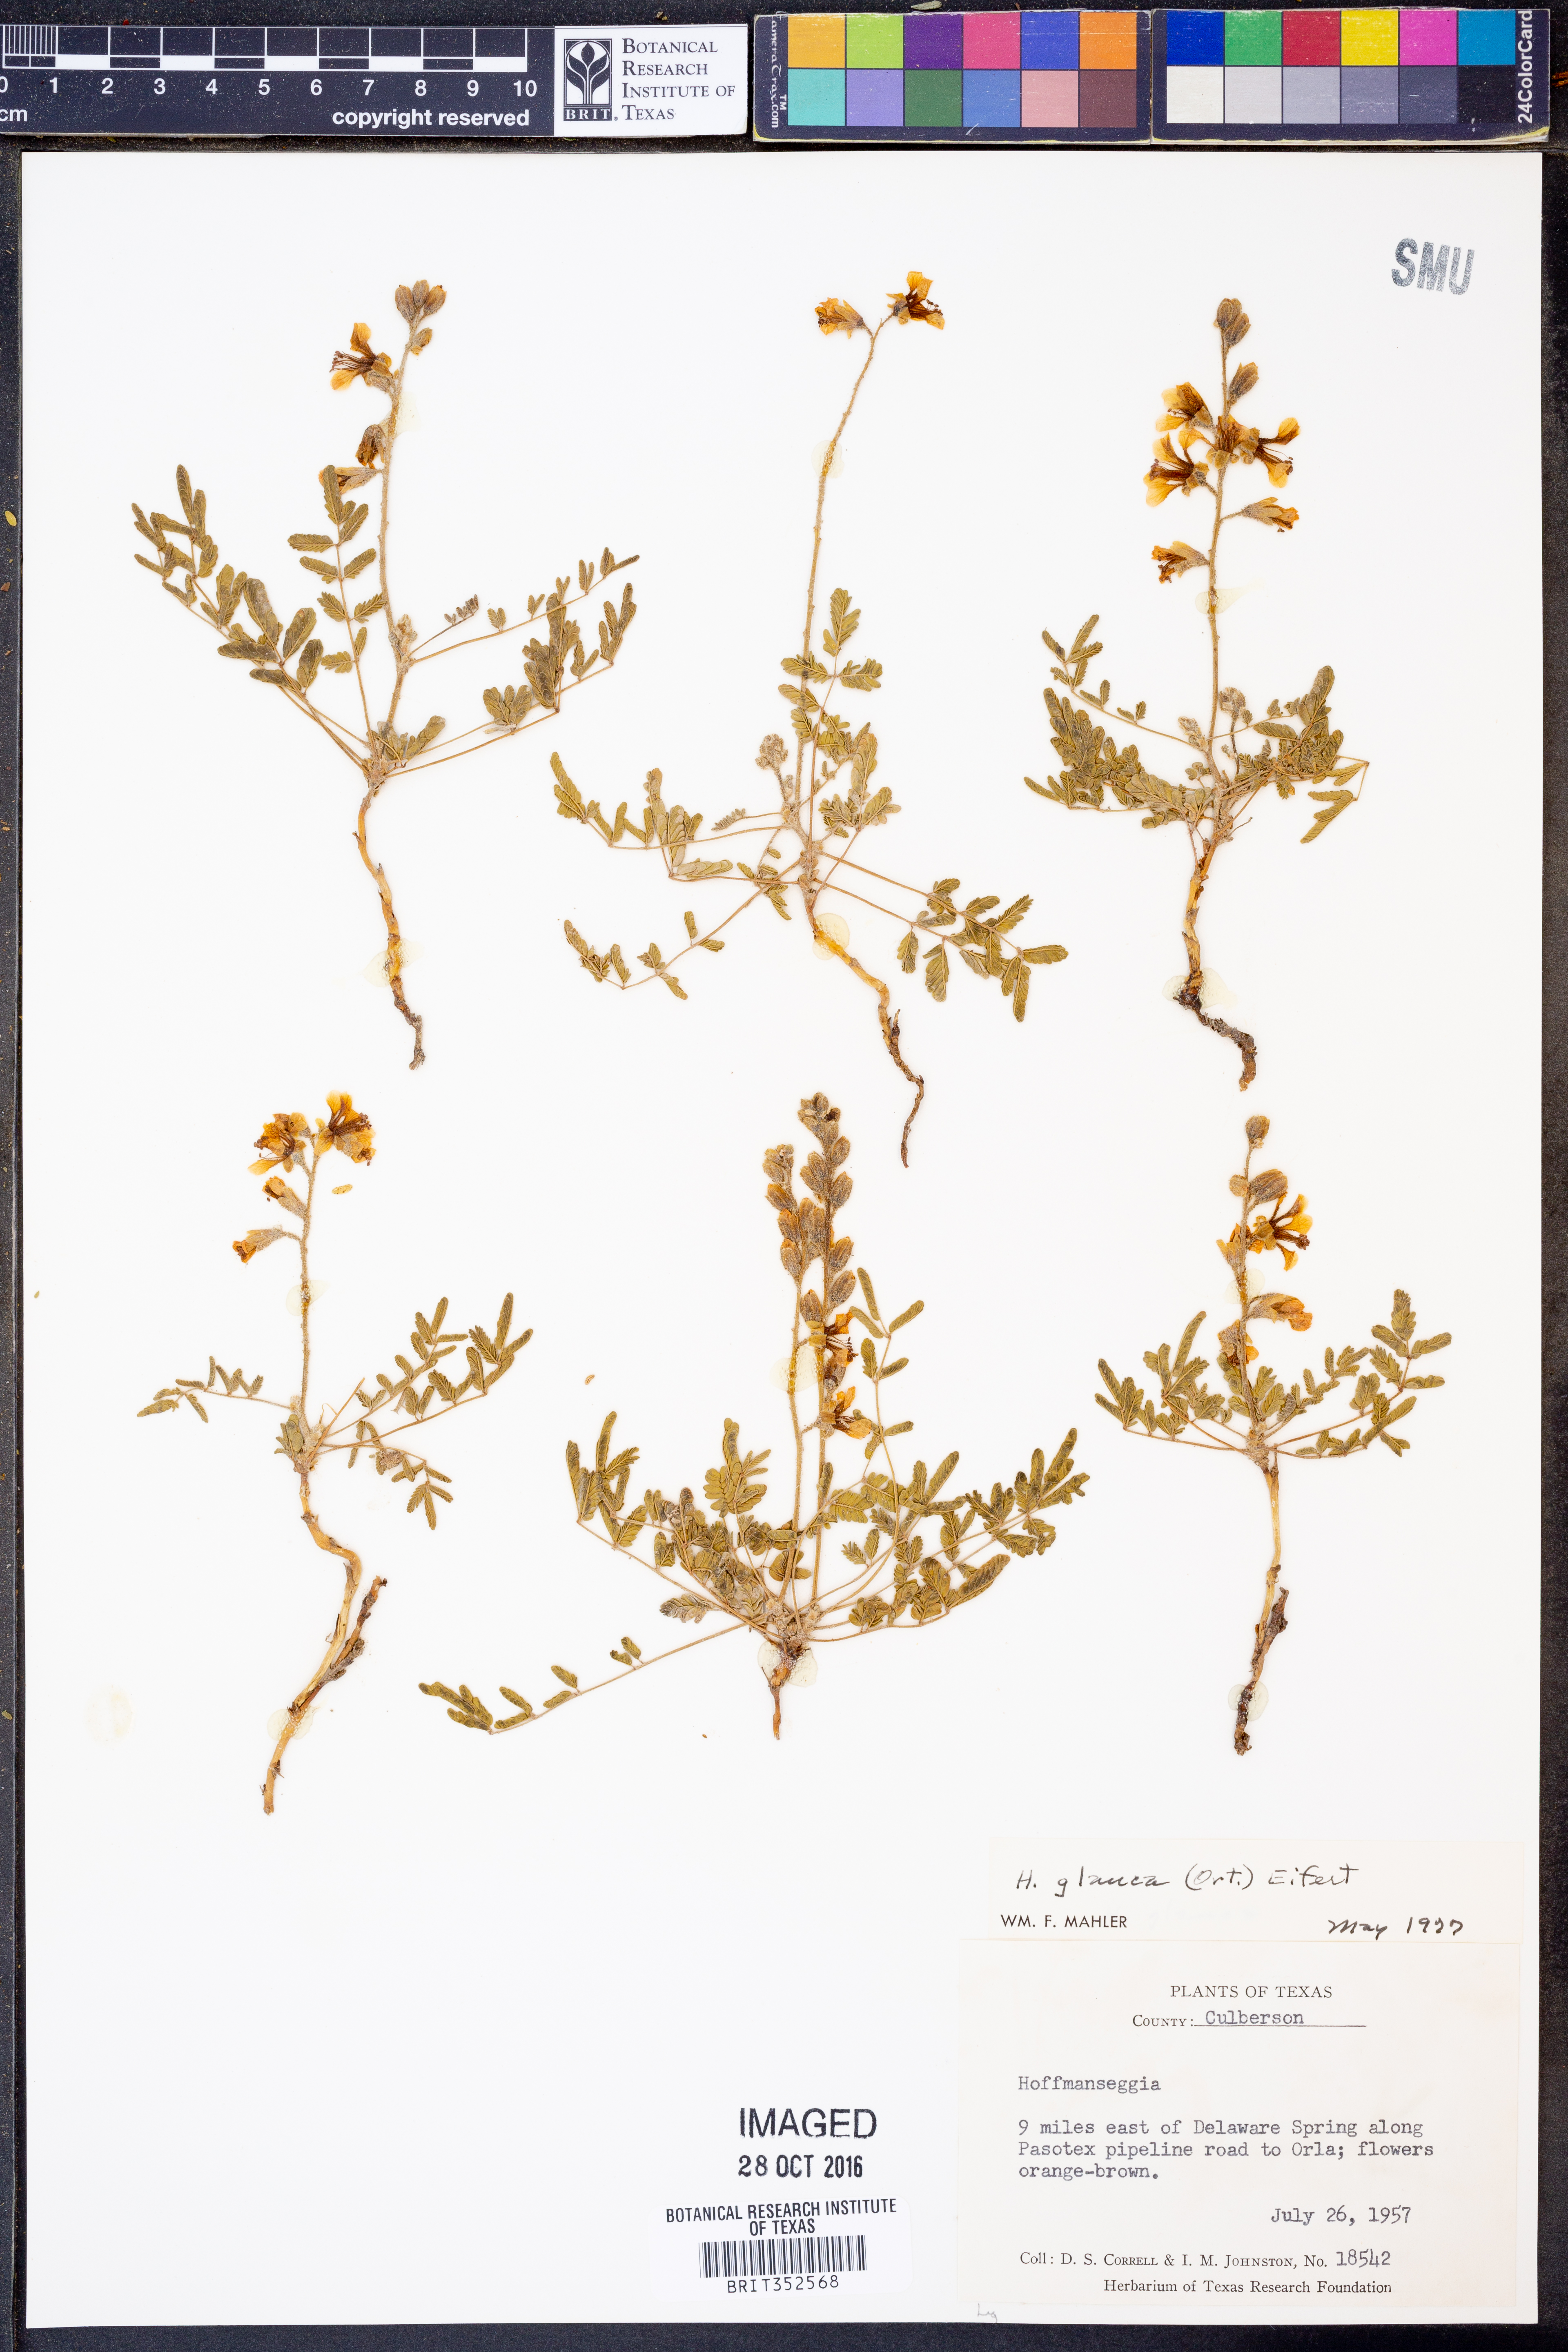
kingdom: Plantae
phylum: Tracheophyta
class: Magnoliopsida
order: Fabales
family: Fabaceae
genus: Hoffmannseggia
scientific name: Hoffmannseggia glauca
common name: Pignut
